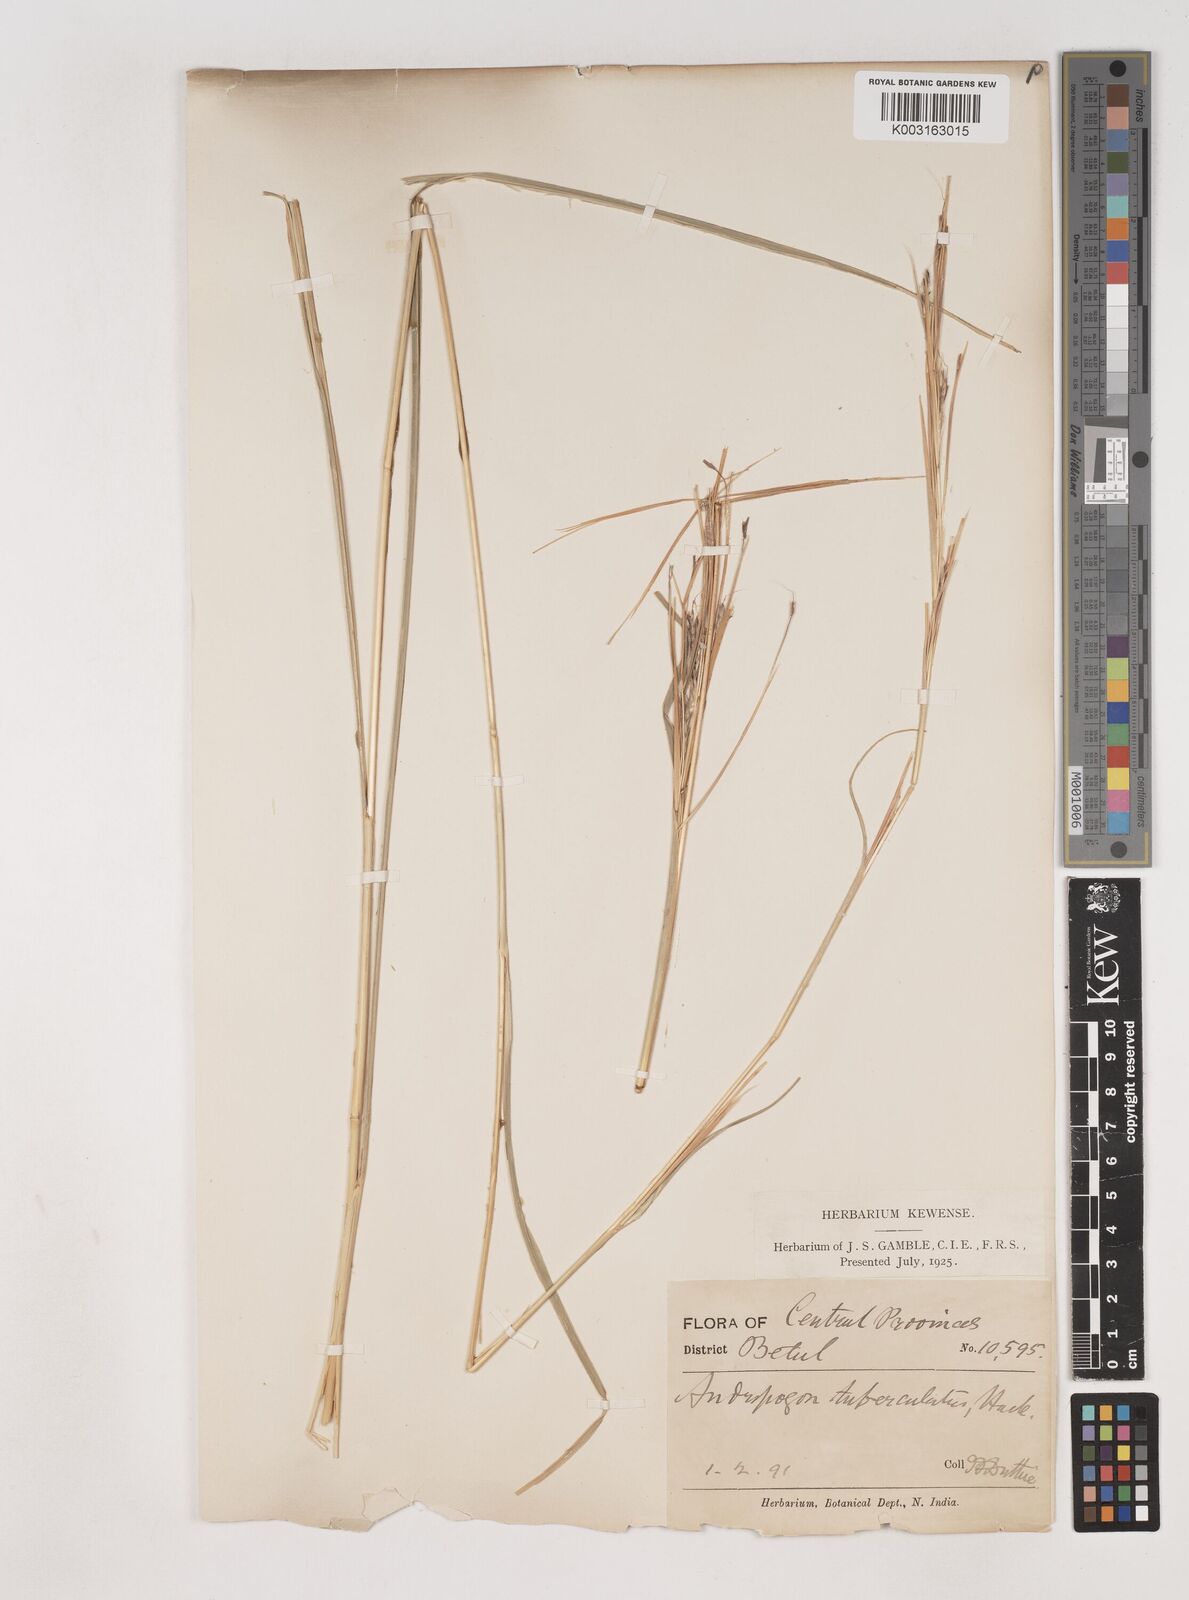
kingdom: Plantae
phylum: Tracheophyta
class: Liliopsida
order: Poales
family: Poaceae
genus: Dichanthium
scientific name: Dichanthium tuberculatum
